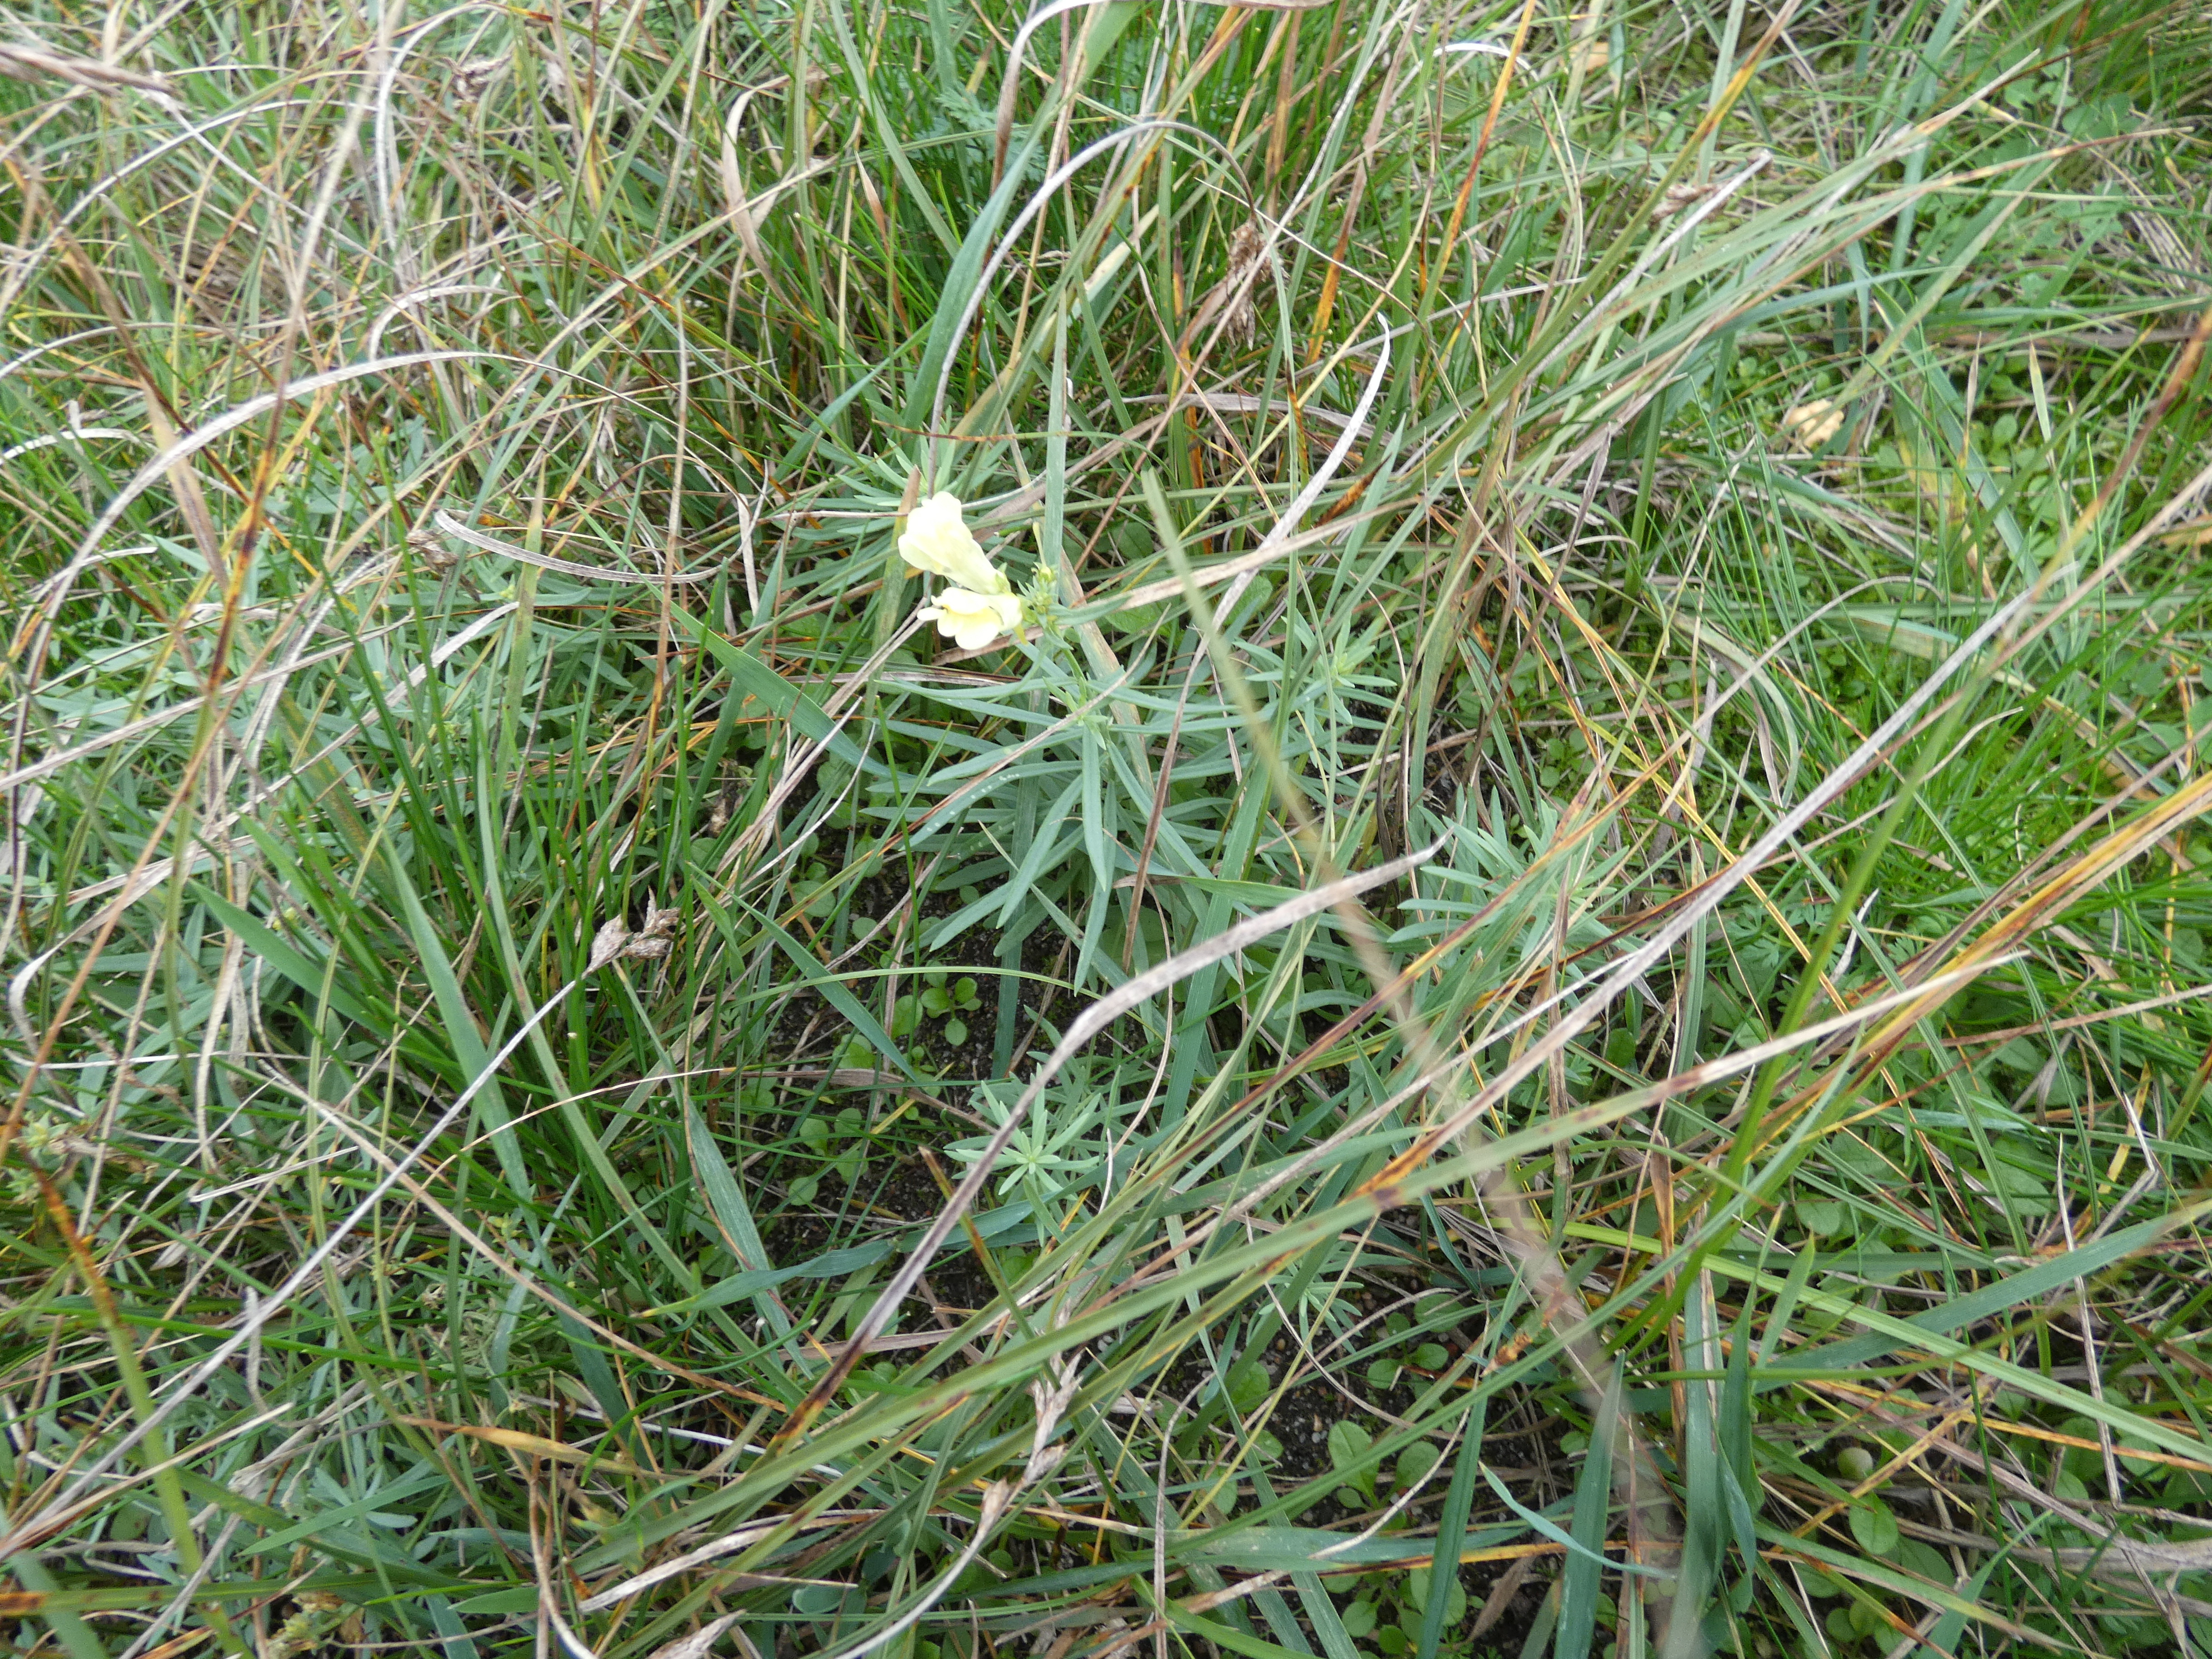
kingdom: Plantae
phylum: Tracheophyta
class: Magnoliopsida
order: Lamiales
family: Plantaginaceae
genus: Linaria
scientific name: Linaria vulgaris
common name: Almindelig torskemund
